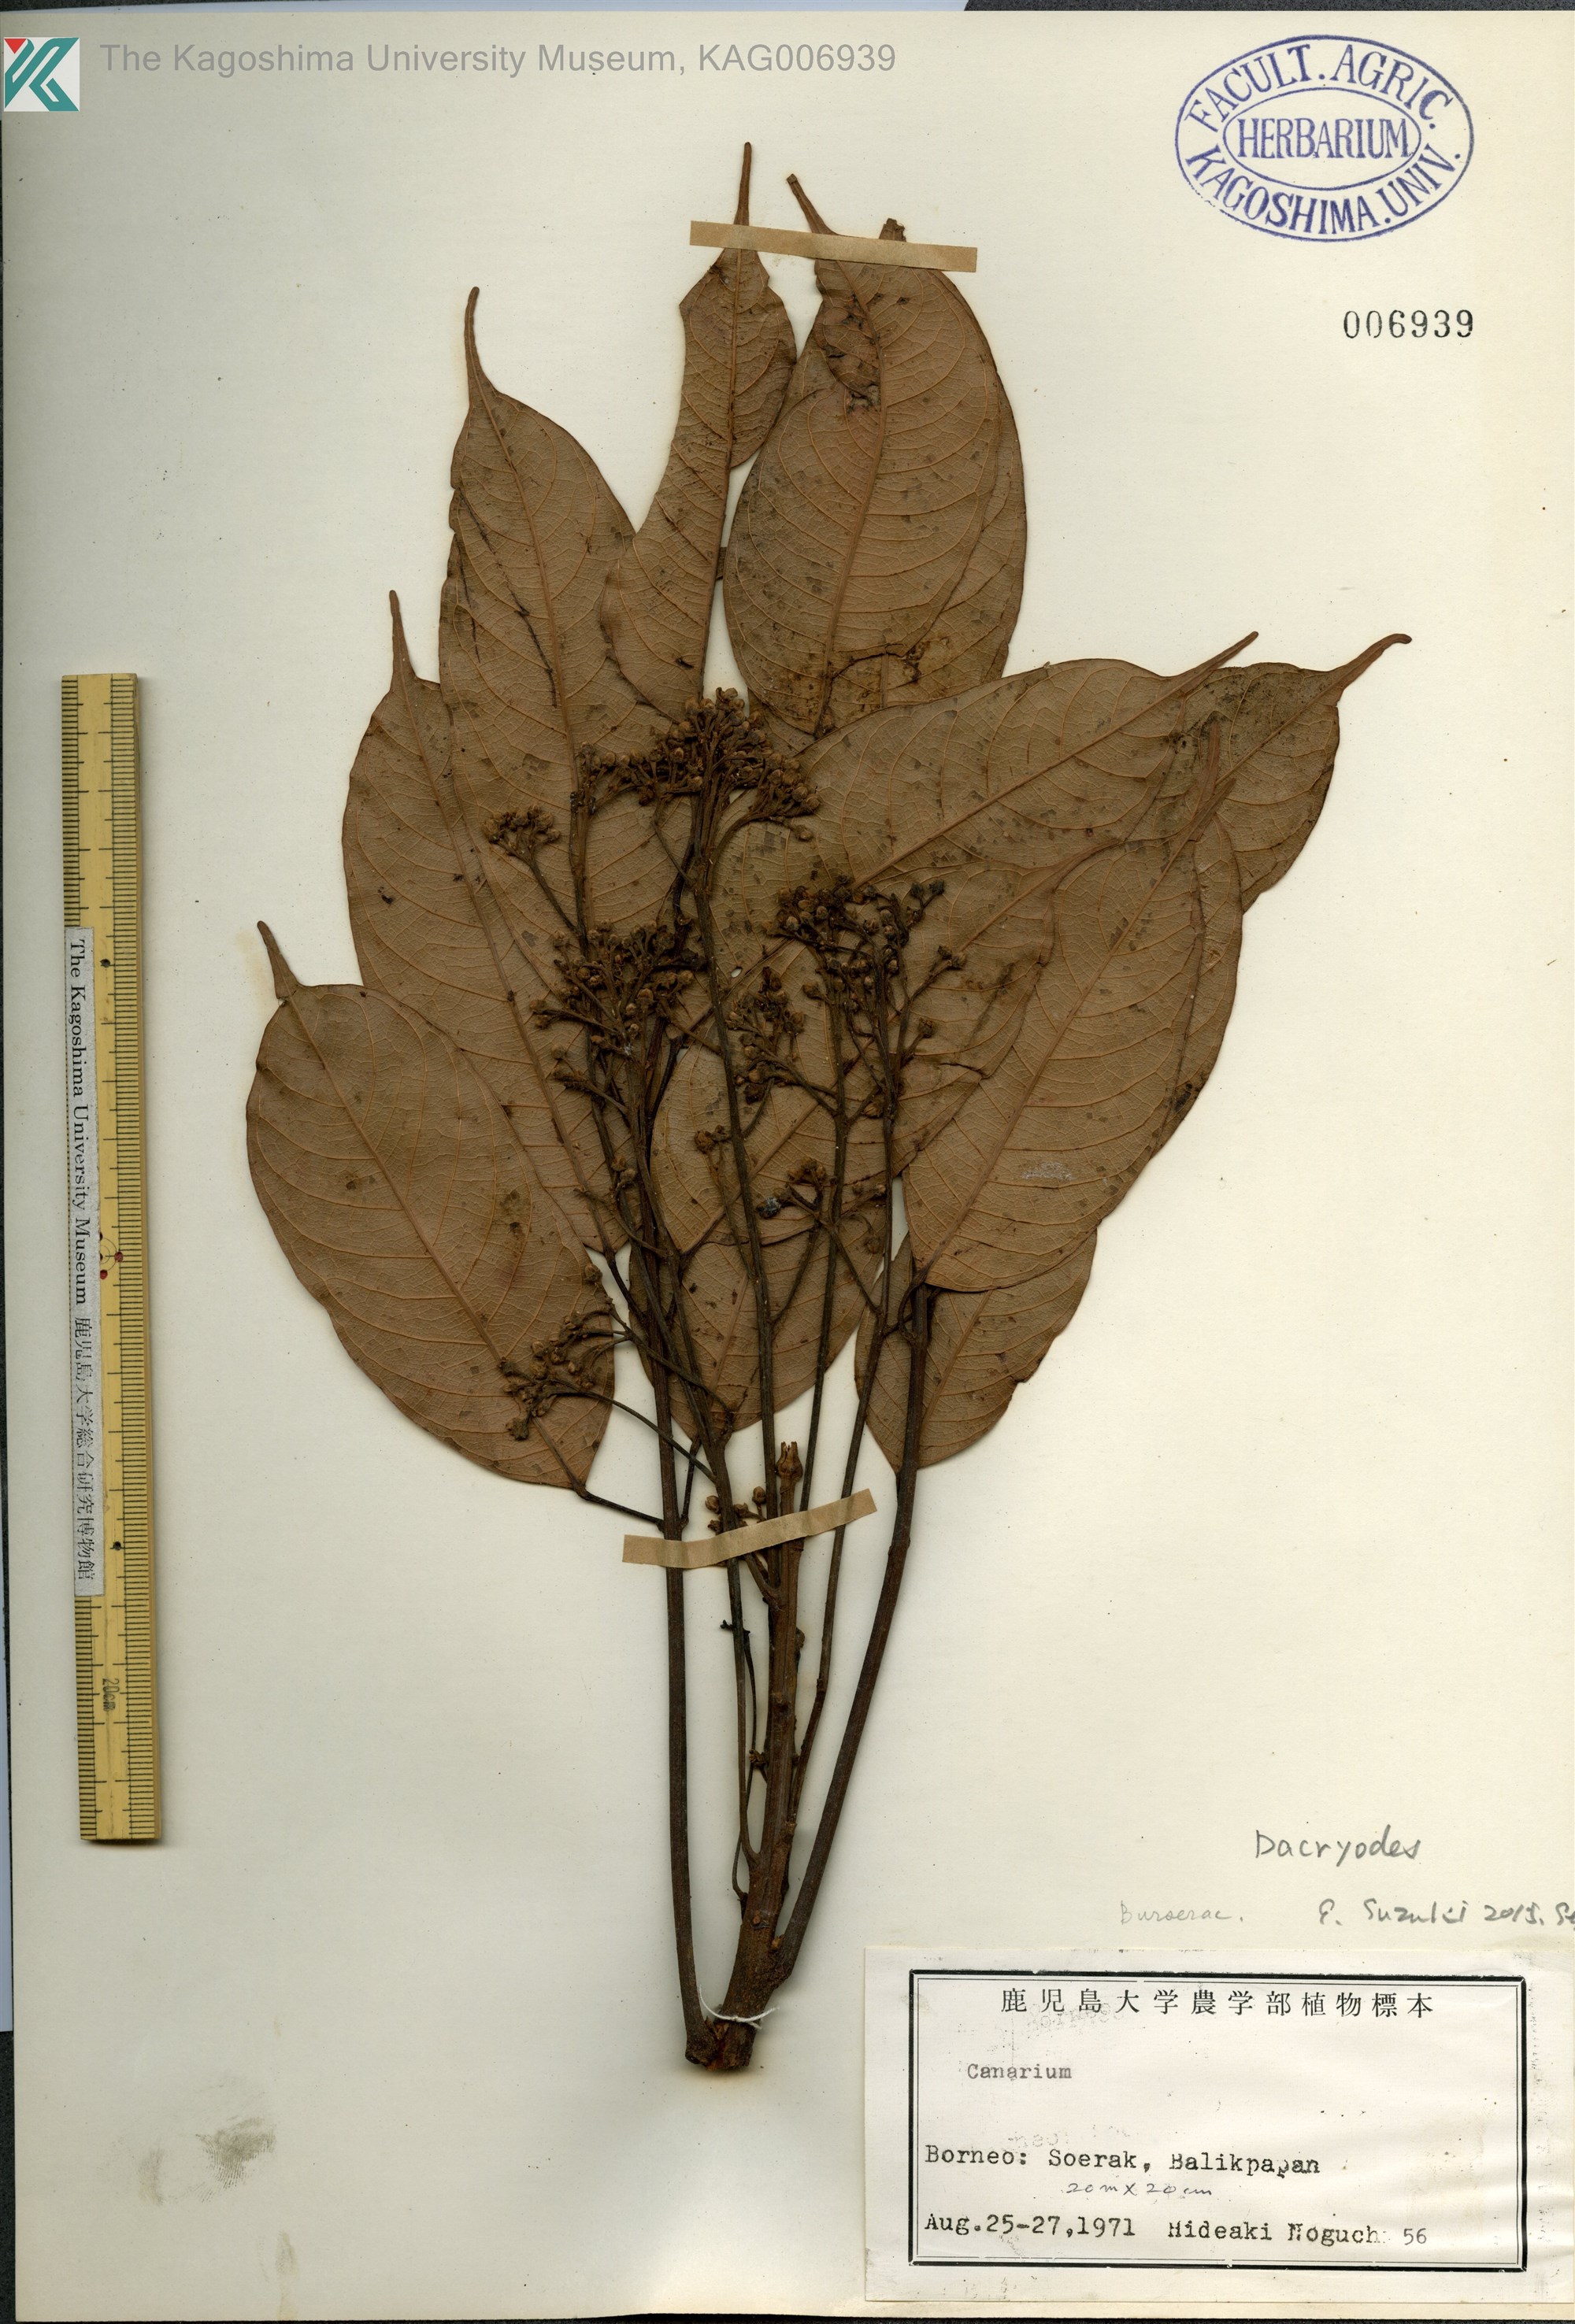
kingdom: Plantae
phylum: Tracheophyta
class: Magnoliopsida
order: Sapindales
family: Burseraceae
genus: Dacryodes
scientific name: Dacryodes
